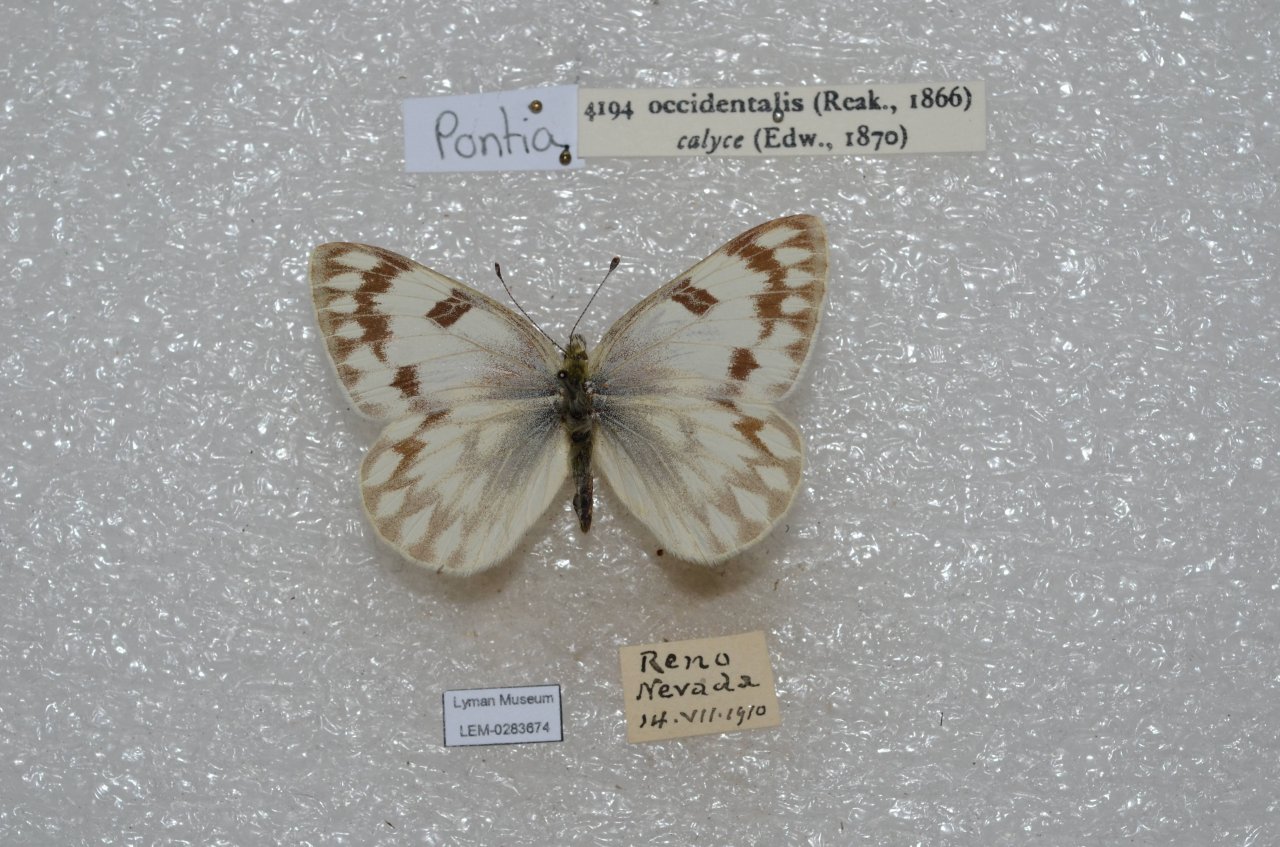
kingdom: Animalia
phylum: Arthropoda
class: Insecta
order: Lepidoptera
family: Pieridae
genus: Pontia
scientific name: Pontia occidentalis
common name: Western White
